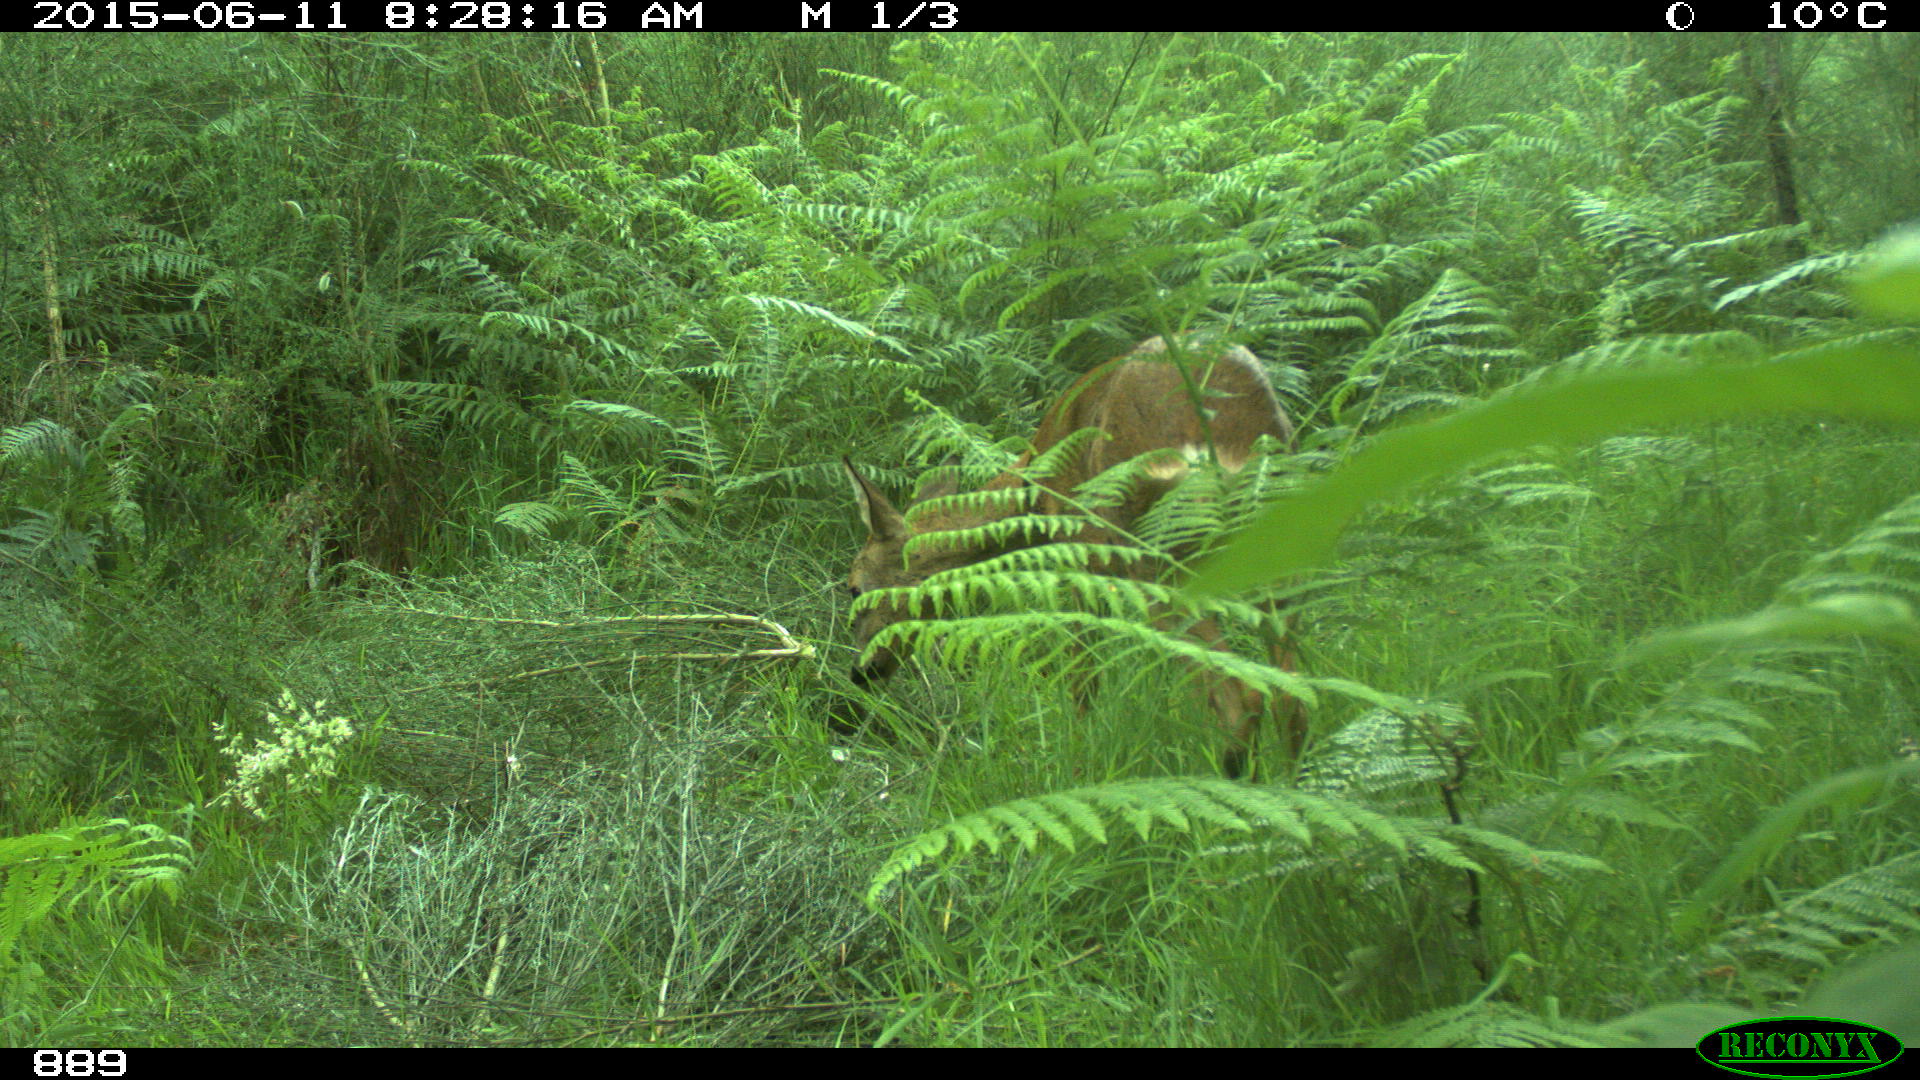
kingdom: Animalia
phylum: Chordata
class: Mammalia
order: Artiodactyla
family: Cervidae
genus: Capreolus
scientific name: Capreolus capreolus
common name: Western roe deer
